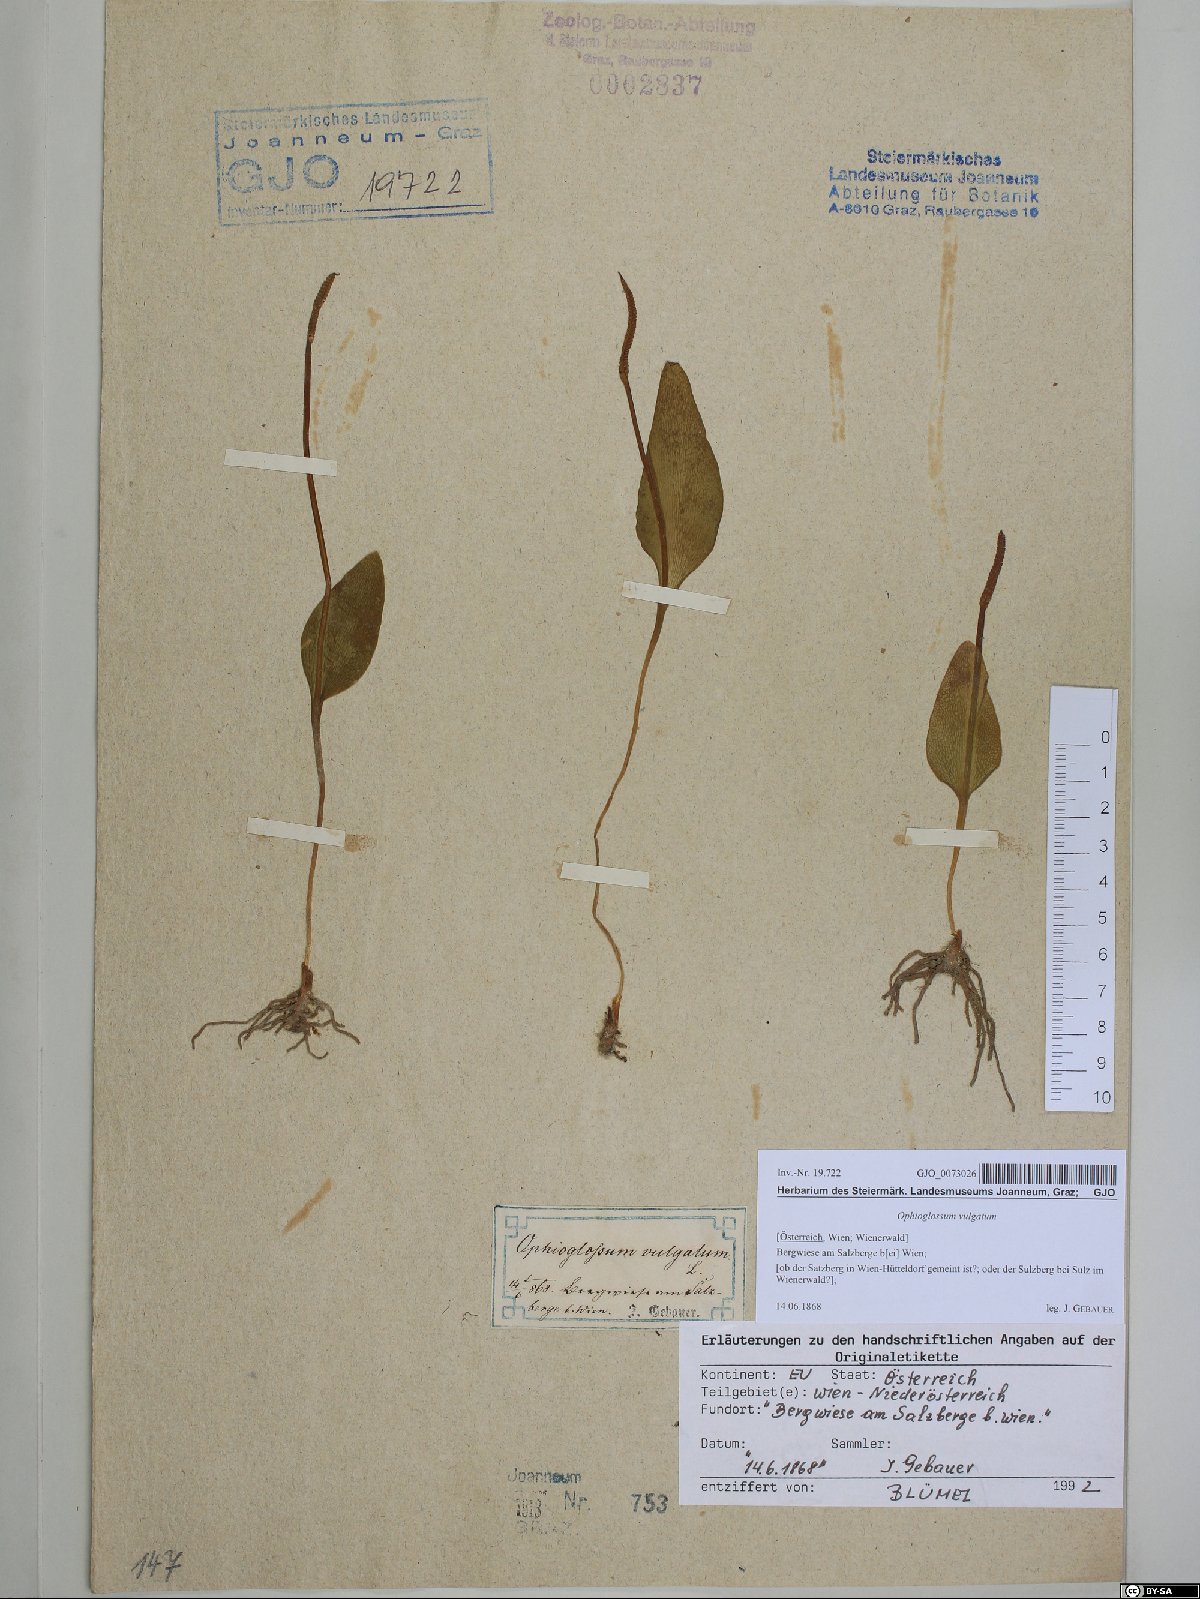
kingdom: Plantae
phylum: Tracheophyta
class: Polypodiopsida
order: Ophioglossales
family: Ophioglossaceae
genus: Ophioglossum
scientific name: Ophioglossum vulgatum
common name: Adder's-tongue
